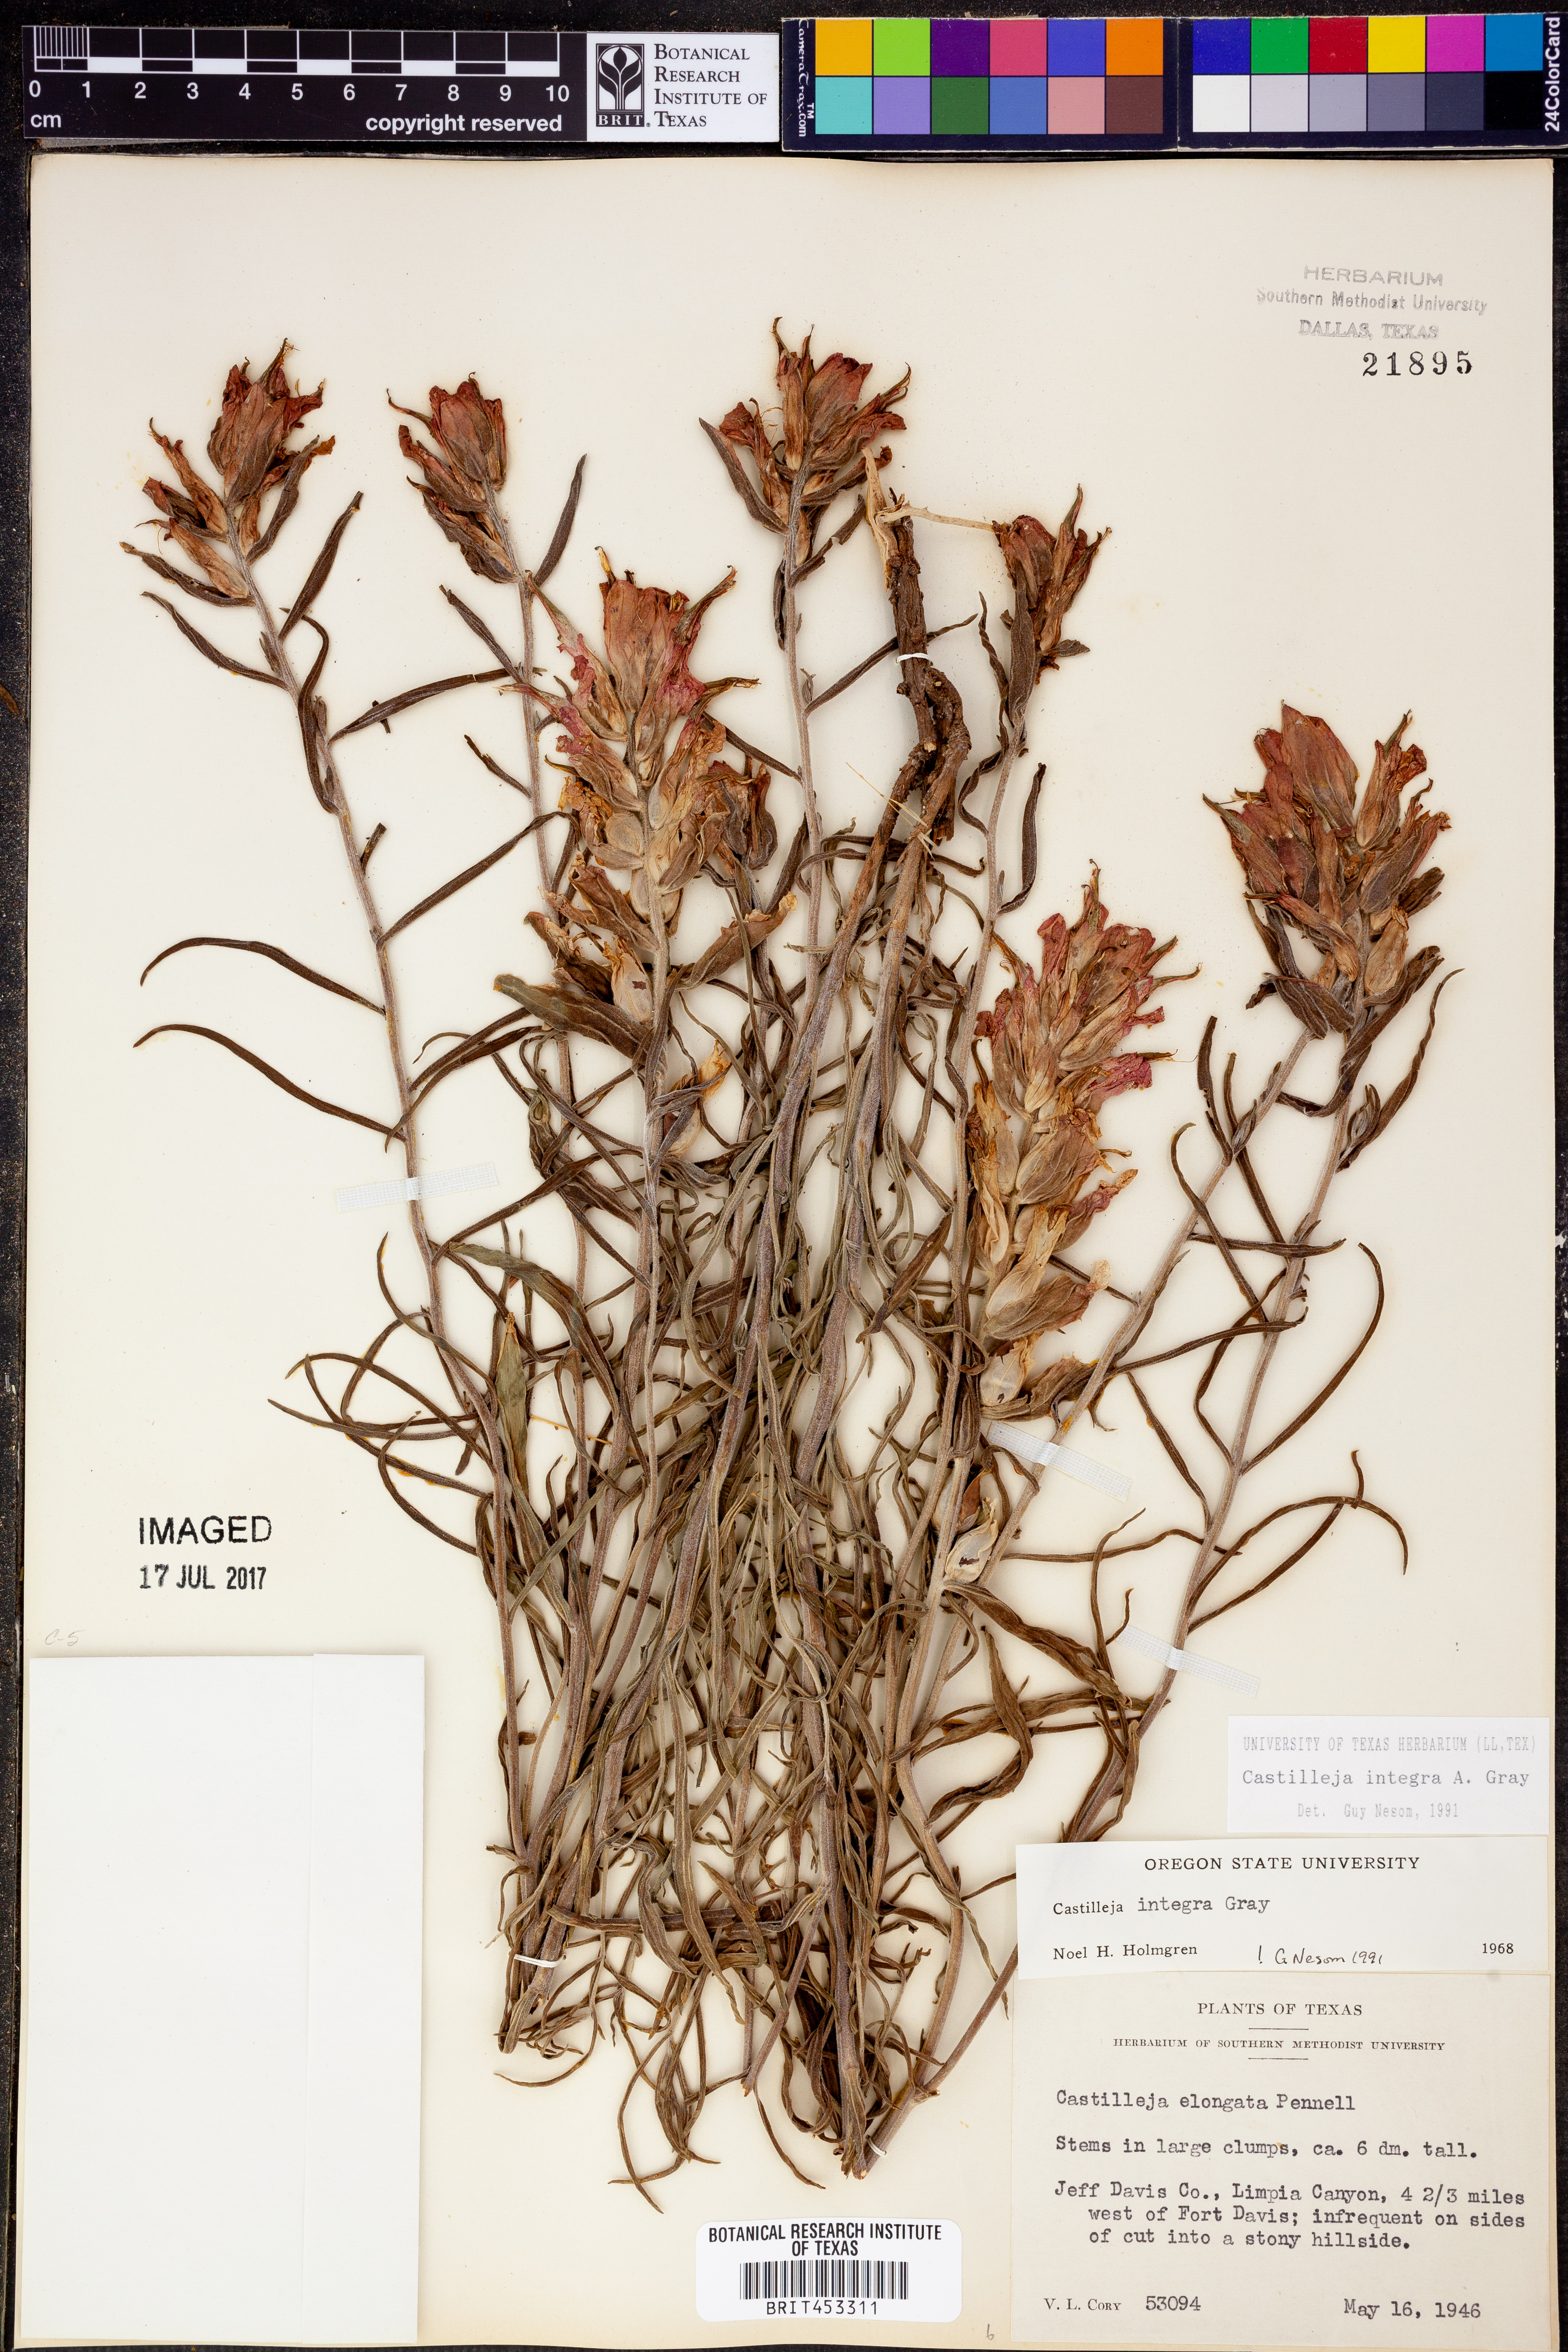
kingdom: Plantae
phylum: Tracheophyta
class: Magnoliopsida
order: Lamiales
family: Orobanchaceae
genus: Castilleja
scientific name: Castilleja integra
